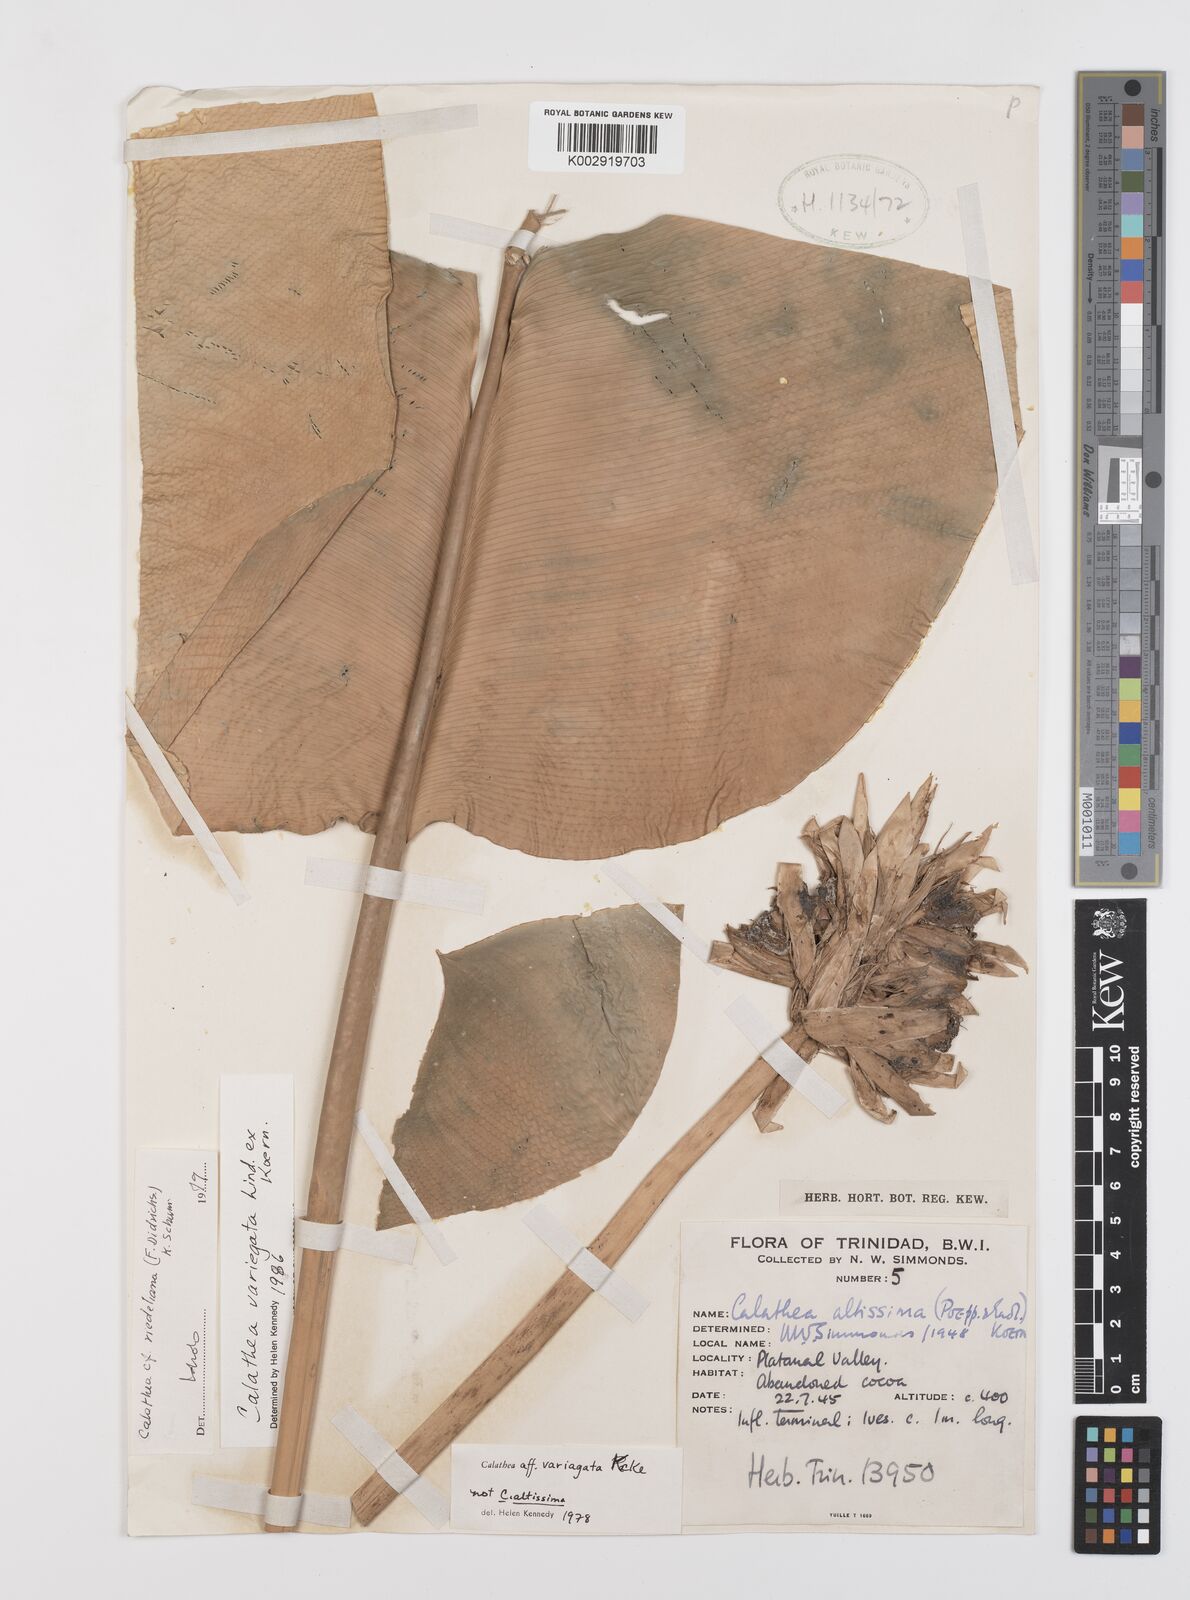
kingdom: Plantae
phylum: Tracheophyta
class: Liliopsida
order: Zingiberales
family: Marantaceae
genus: Goeppertia
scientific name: Goeppertia variegata
